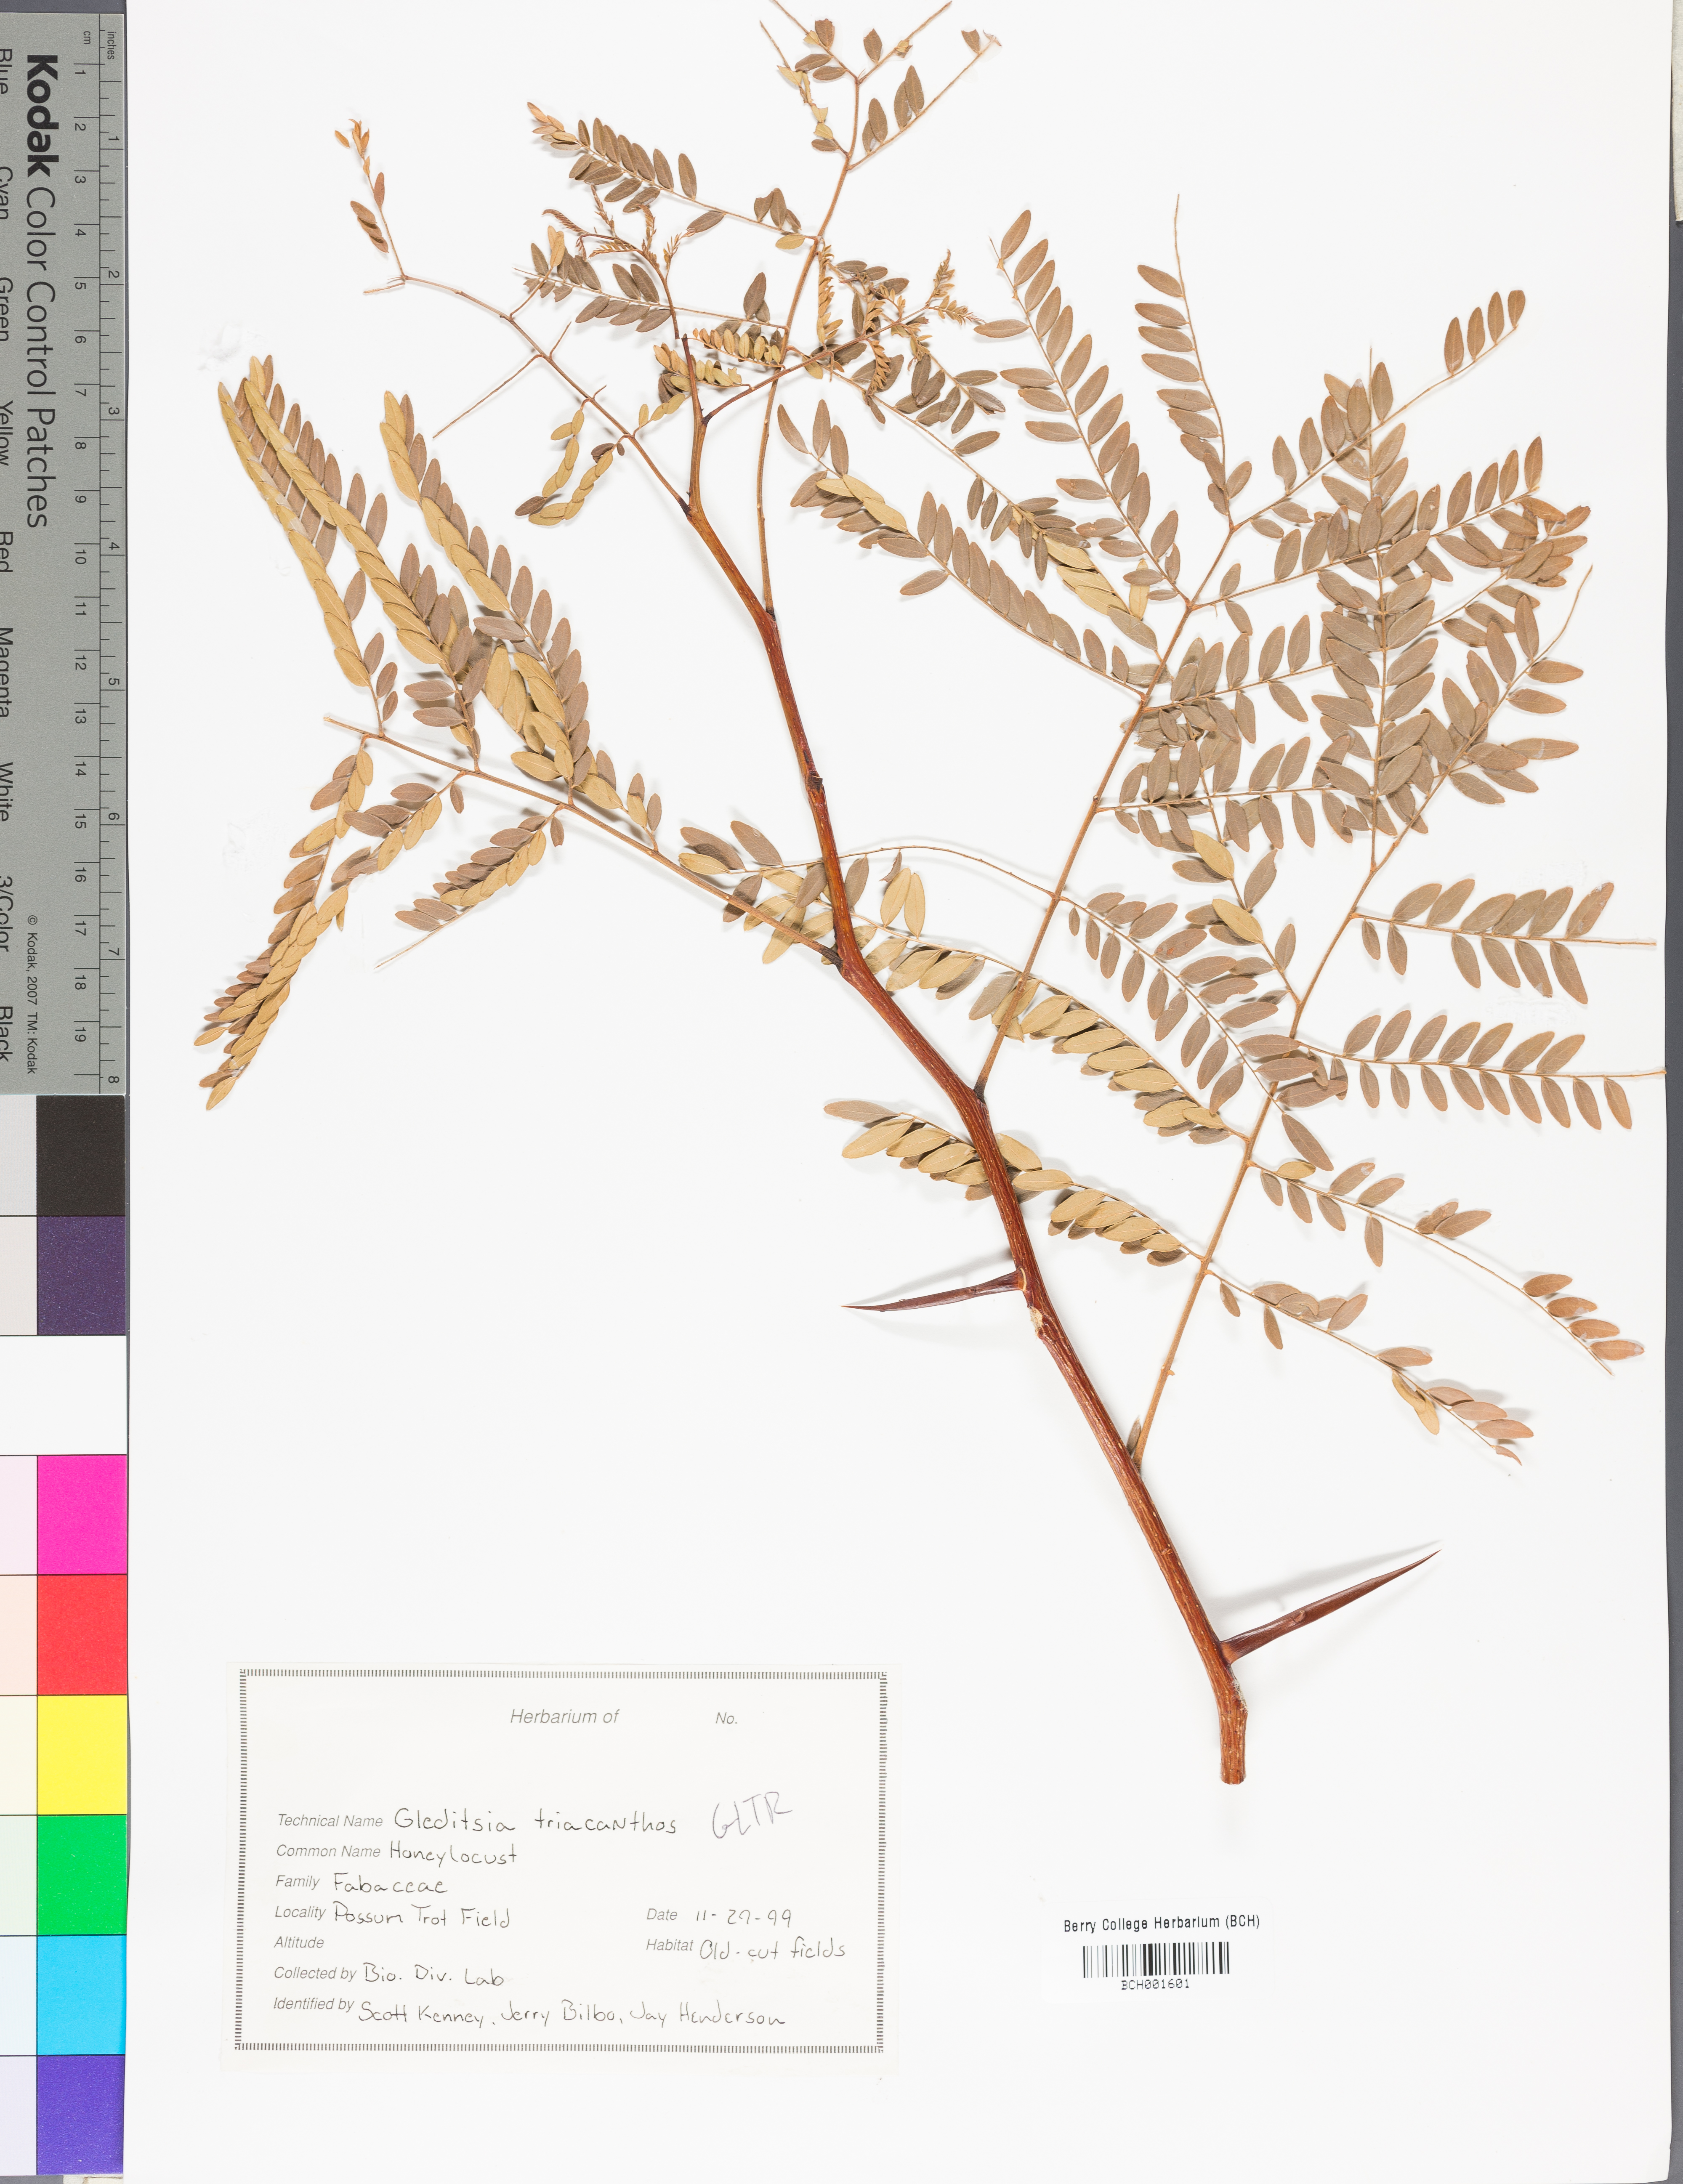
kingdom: Plantae
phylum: Tracheophyta
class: Magnoliopsida
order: Fabales
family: Fabaceae
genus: Gleditsia
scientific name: Gleditsia triacanthos
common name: Common honeylocust
